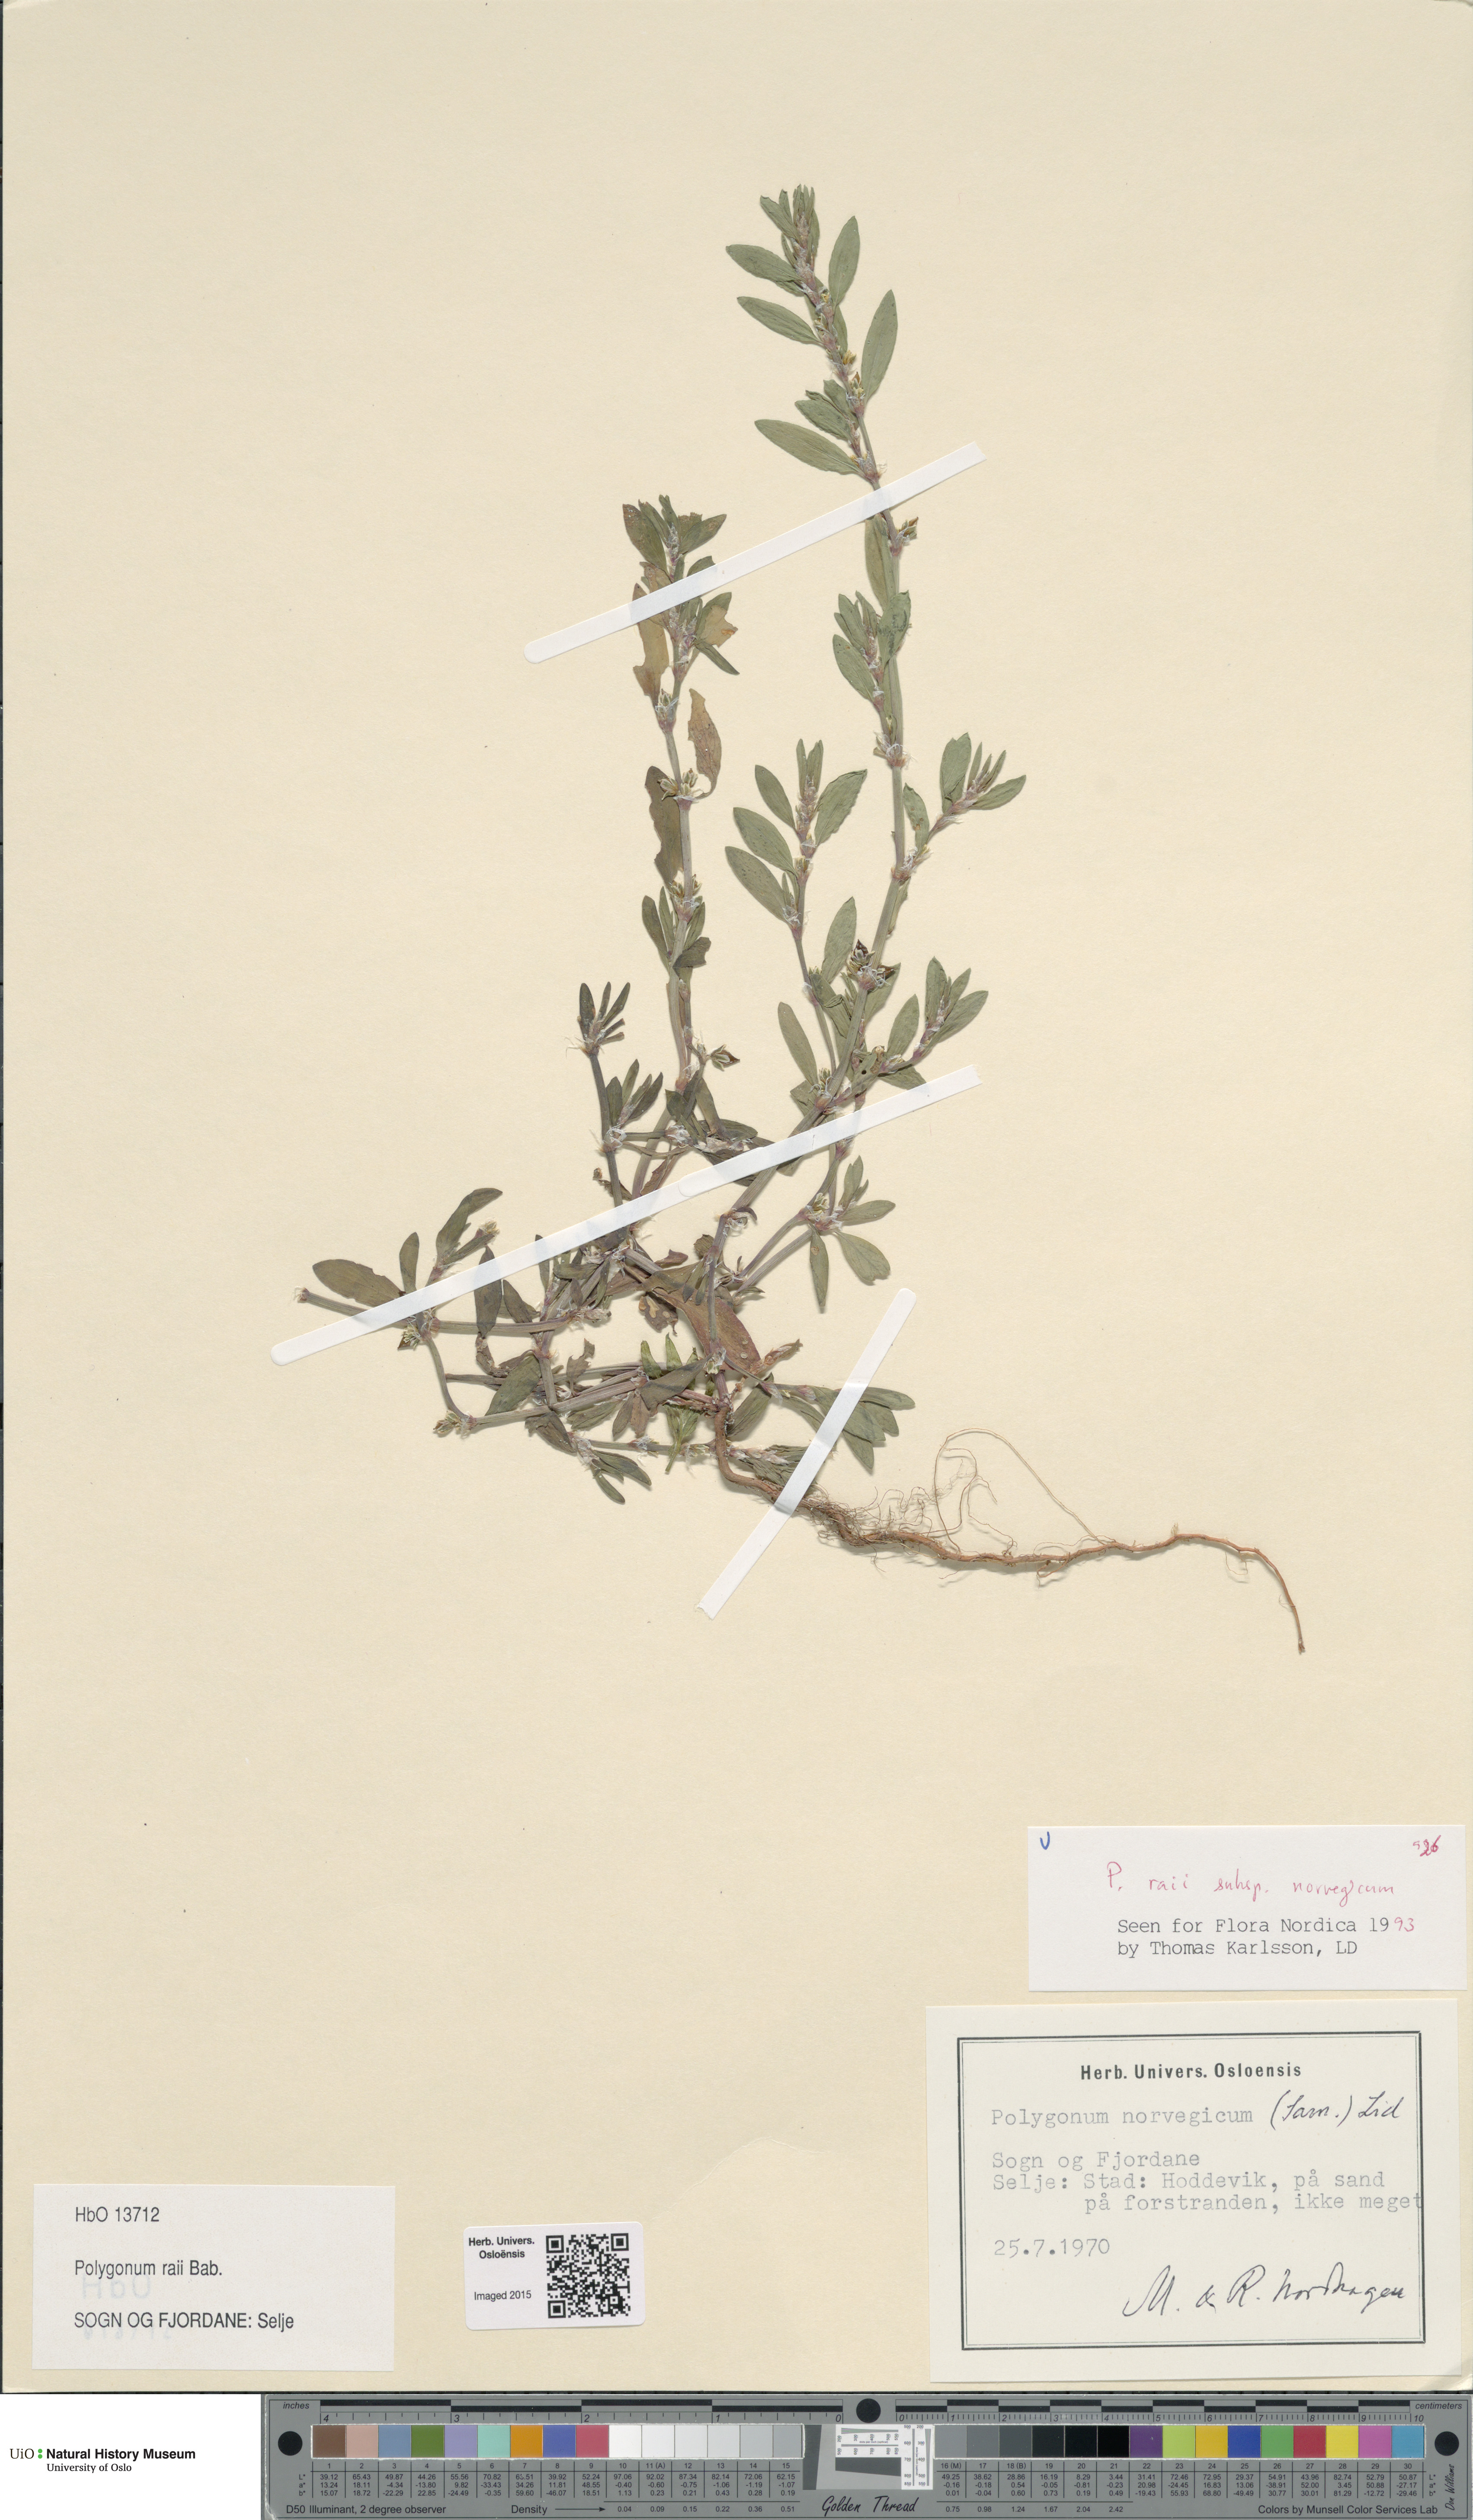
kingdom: Plantae
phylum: Tracheophyta
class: Magnoliopsida
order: Caryophyllales
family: Polygonaceae
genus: Polygonum
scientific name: Polygonum norvegicum
